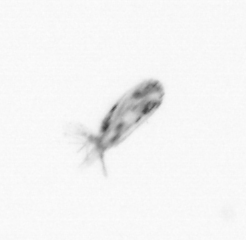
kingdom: Animalia
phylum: Arthropoda
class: Copepoda
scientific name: Copepoda
